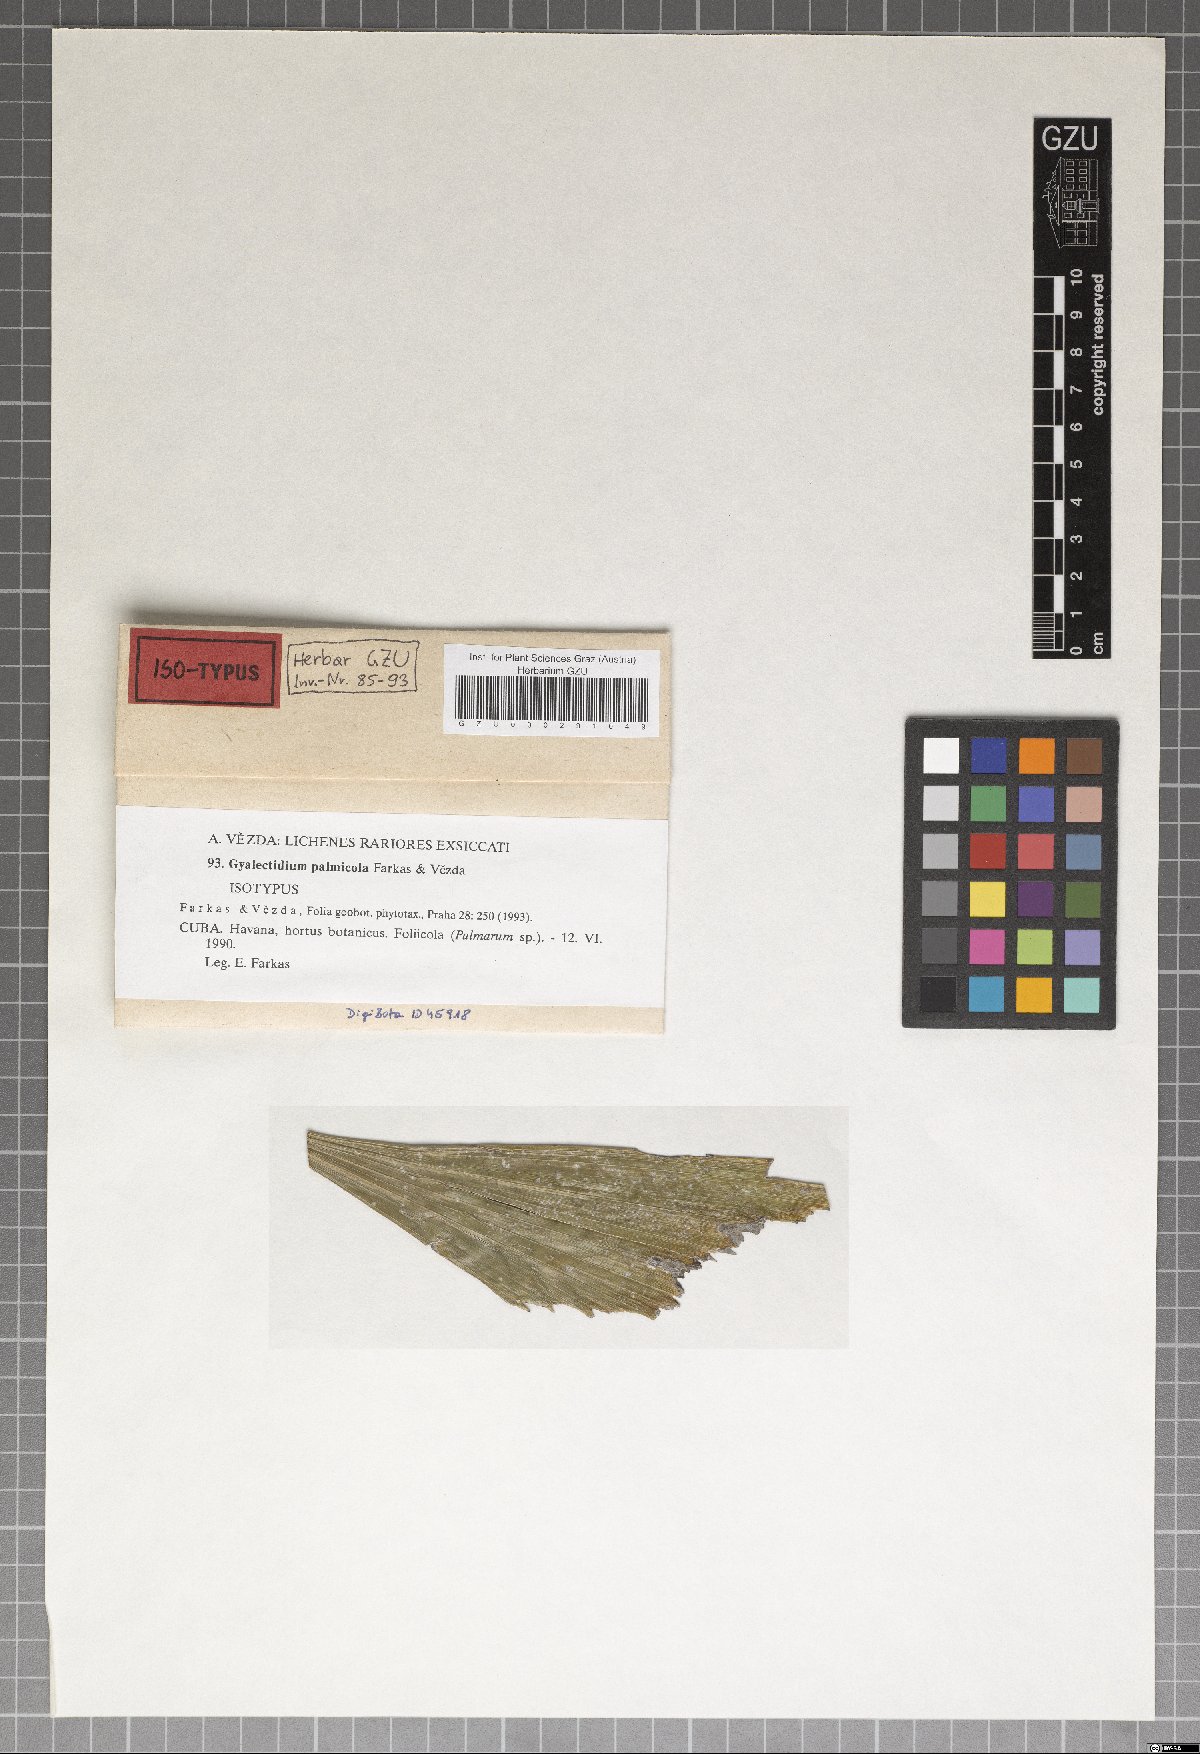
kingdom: Fungi
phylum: Ascomycota
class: Lecanoromycetes
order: Ostropales
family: Gomphillaceae
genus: Gyalectidium
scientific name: Gyalectidium
